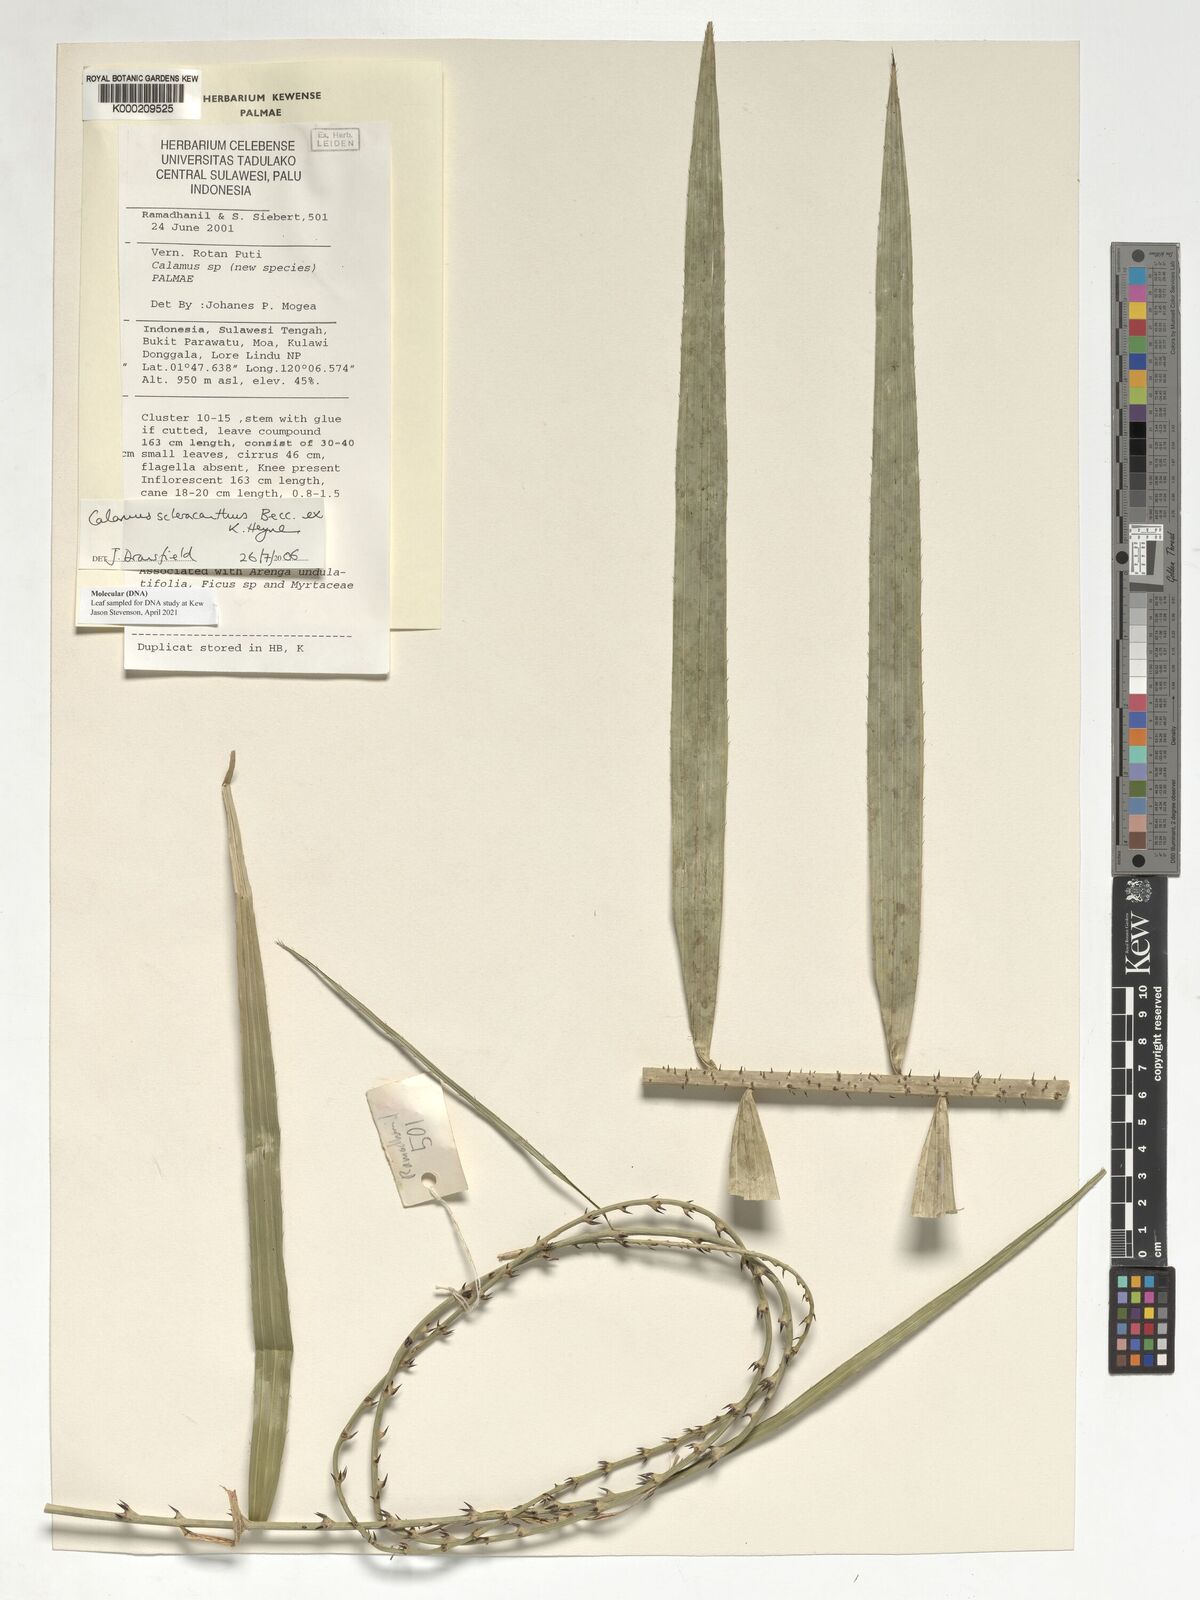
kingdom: Plantae
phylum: Tracheophyta
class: Liliopsida
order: Arecales
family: Arecaceae
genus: Calamus
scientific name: Calamus scleracanthus
